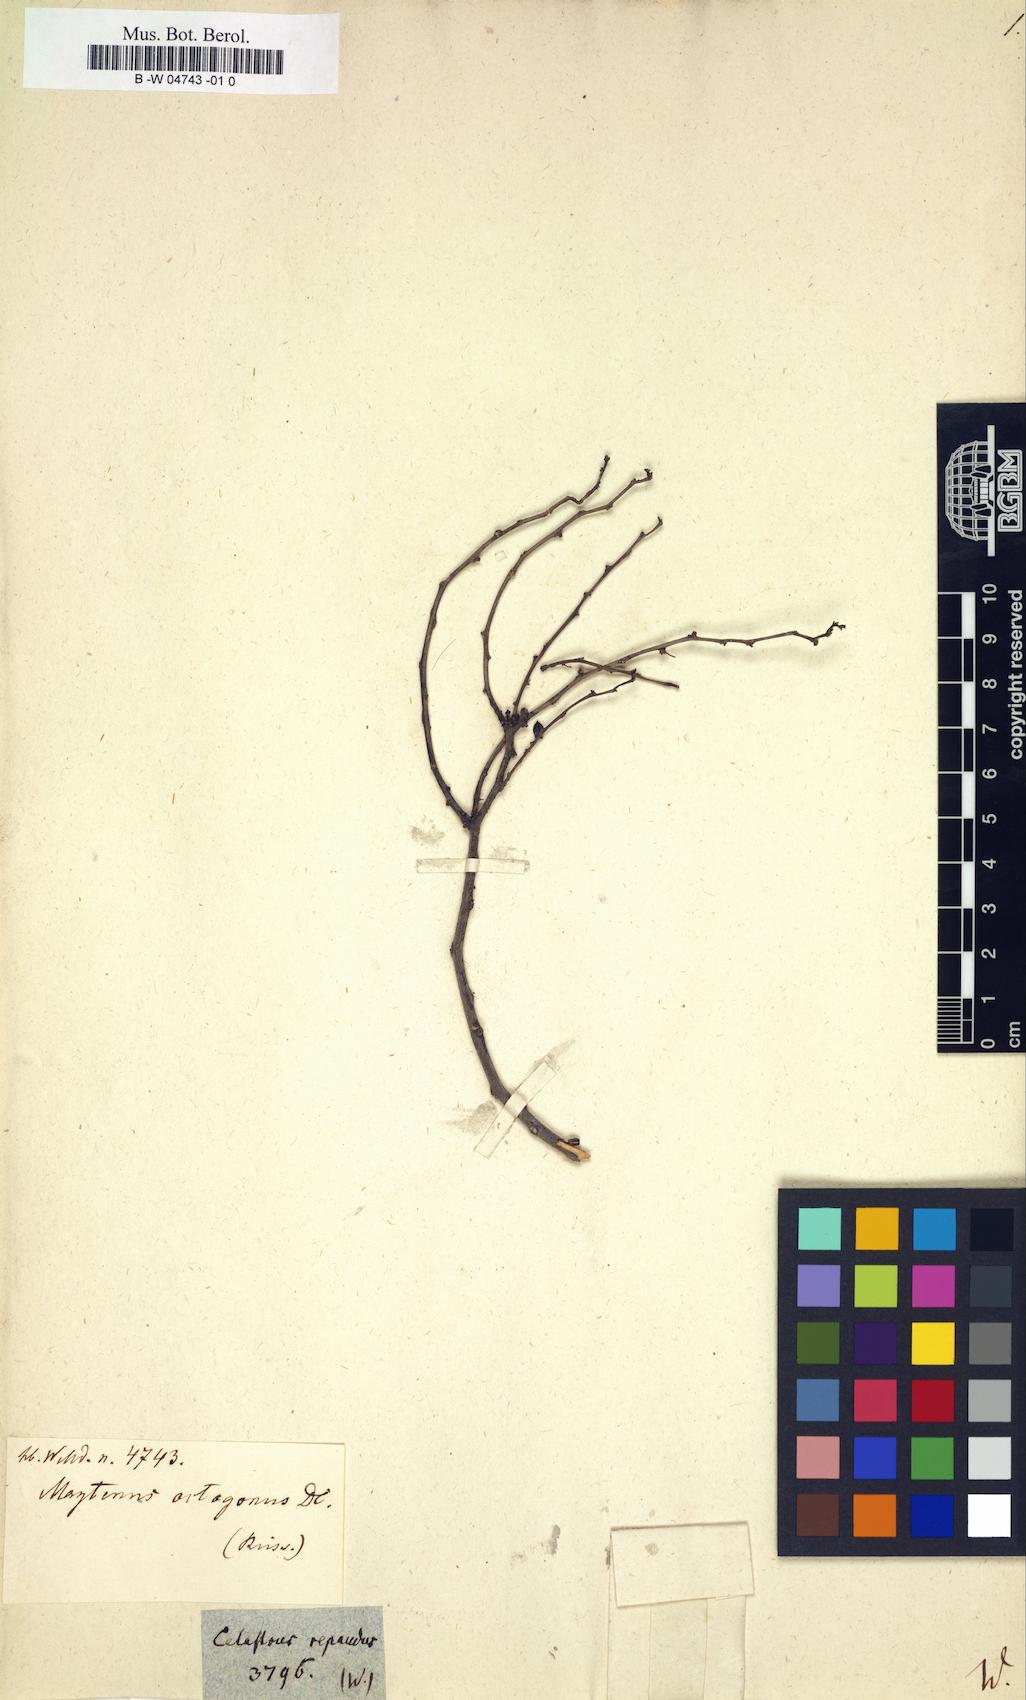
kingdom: Plantae
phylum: Tracheophyta
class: Magnoliopsida
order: Celastrales
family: Celastraceae
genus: Celastrus
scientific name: Celastrus repandus
